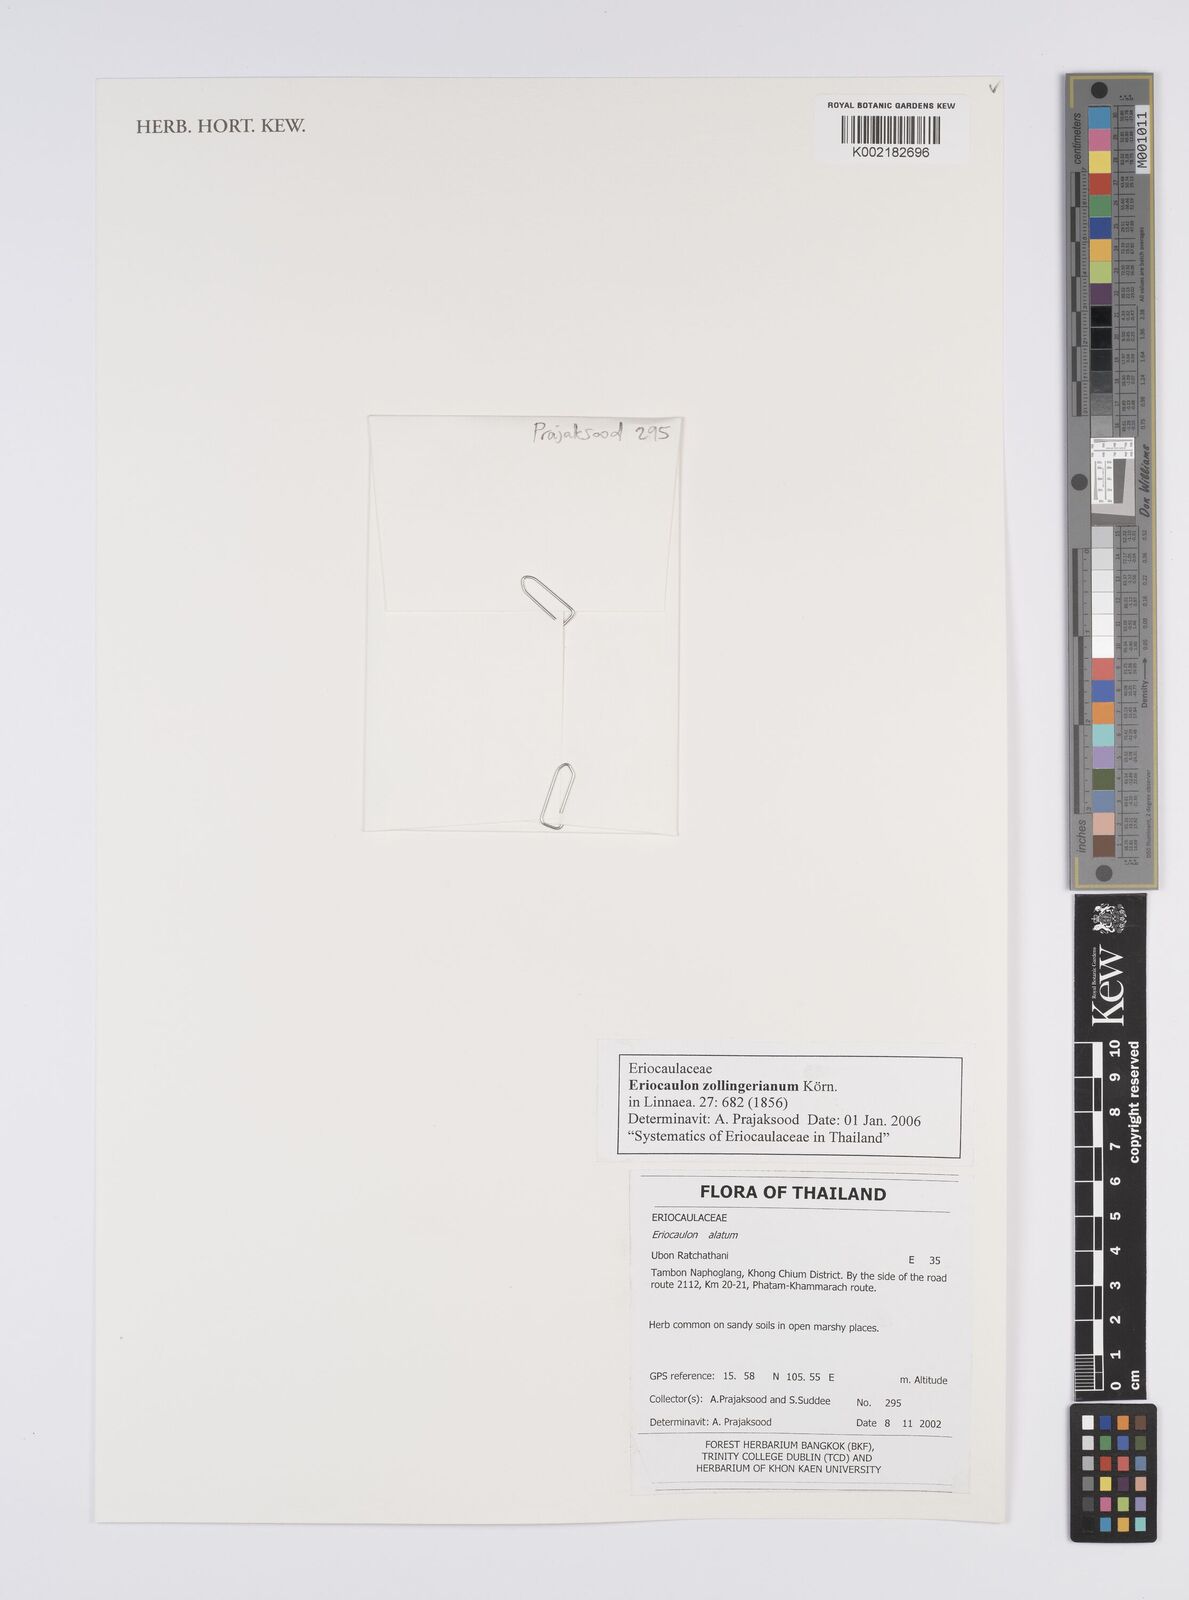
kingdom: Plantae
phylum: Tracheophyta
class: Liliopsida
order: Poales
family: Eriocaulaceae
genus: Eriocaulon
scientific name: Eriocaulon zollingerianum
